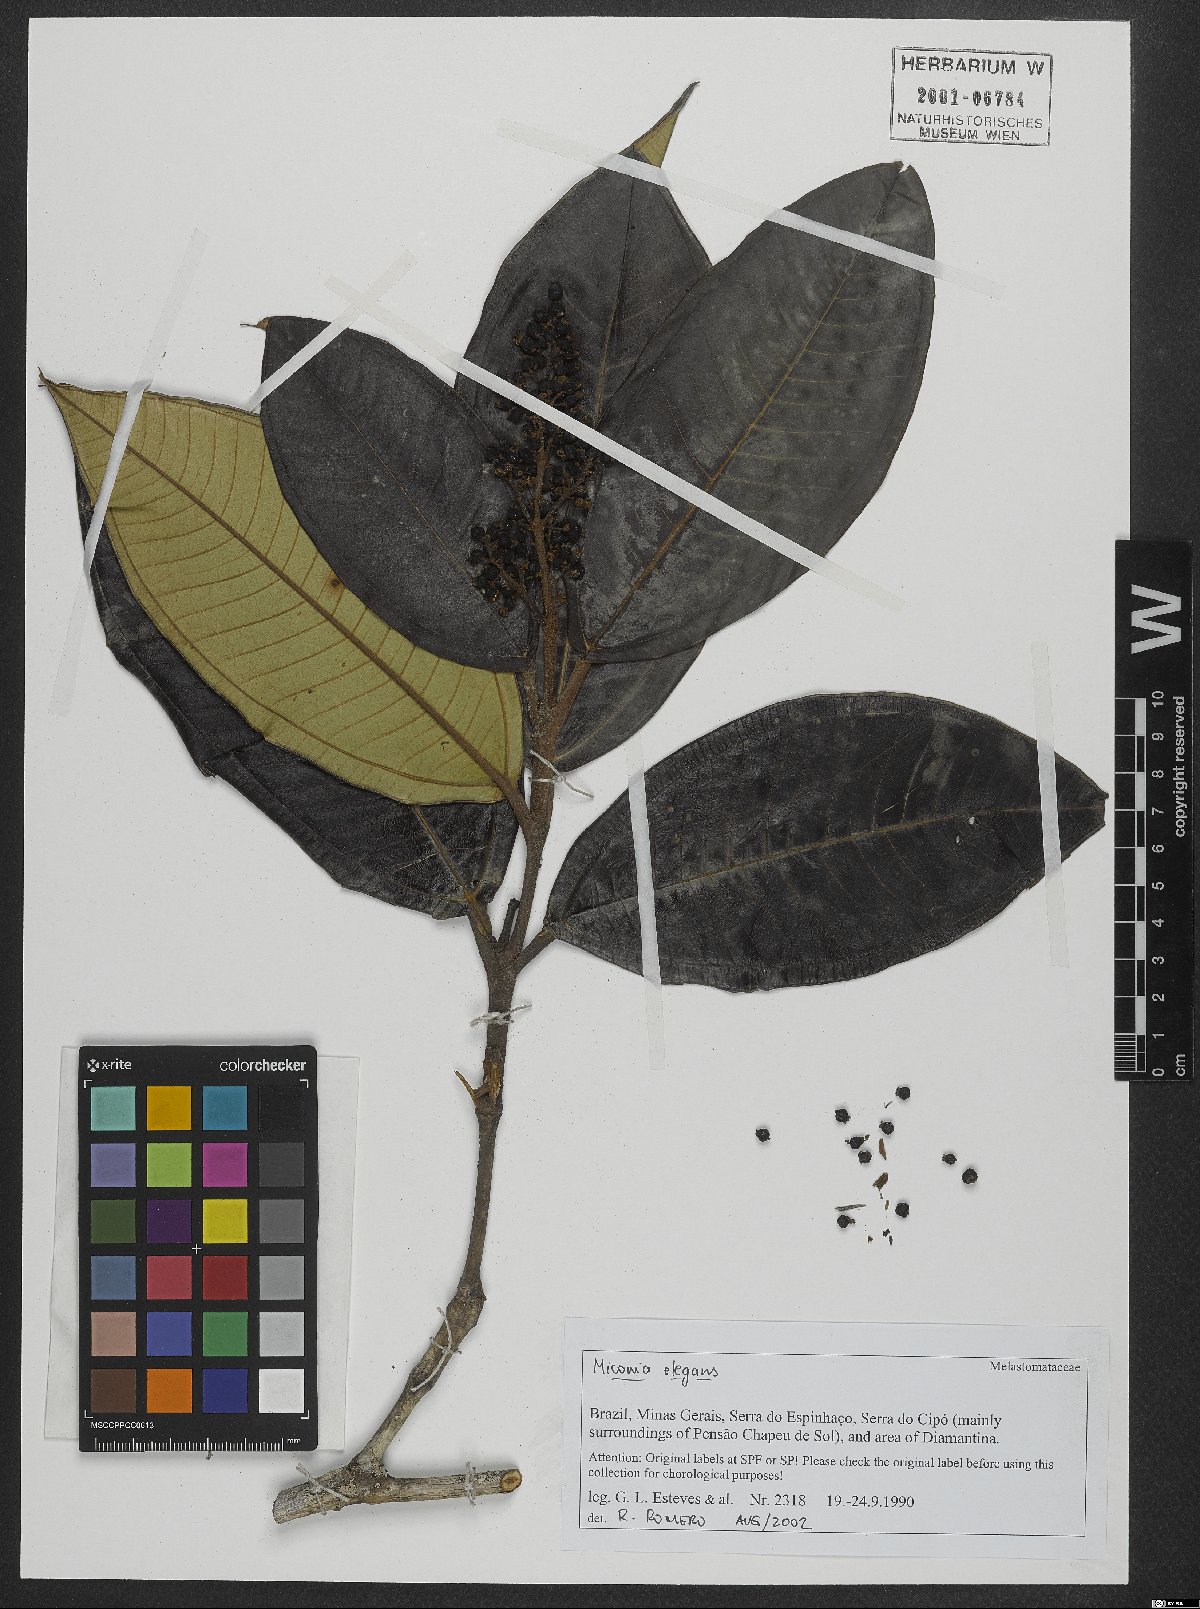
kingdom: Plantae
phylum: Tracheophyta
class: Magnoliopsida
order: Myrtales
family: Melastomataceae
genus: Miconia
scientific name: Miconia elegans
